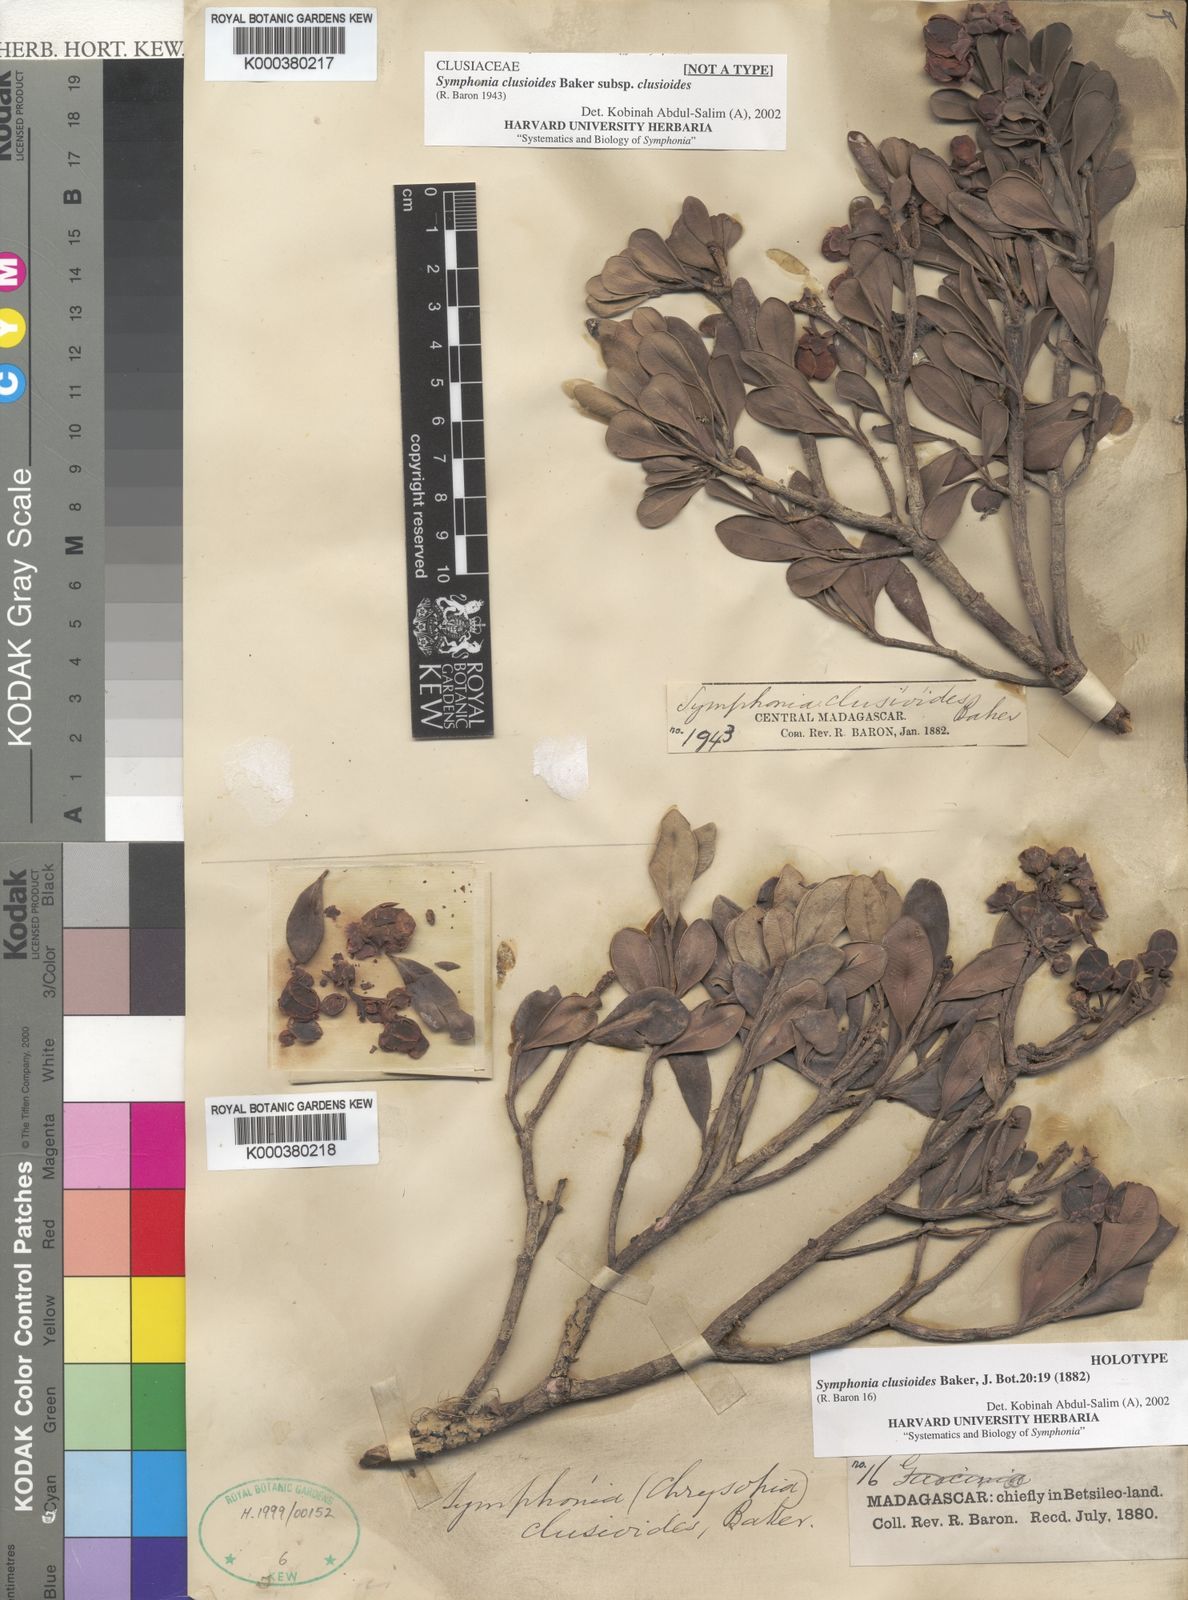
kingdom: Plantae
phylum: Tracheophyta
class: Magnoliopsida
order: Malpighiales
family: Clusiaceae
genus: Symphonia
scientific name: Symphonia clusioides
